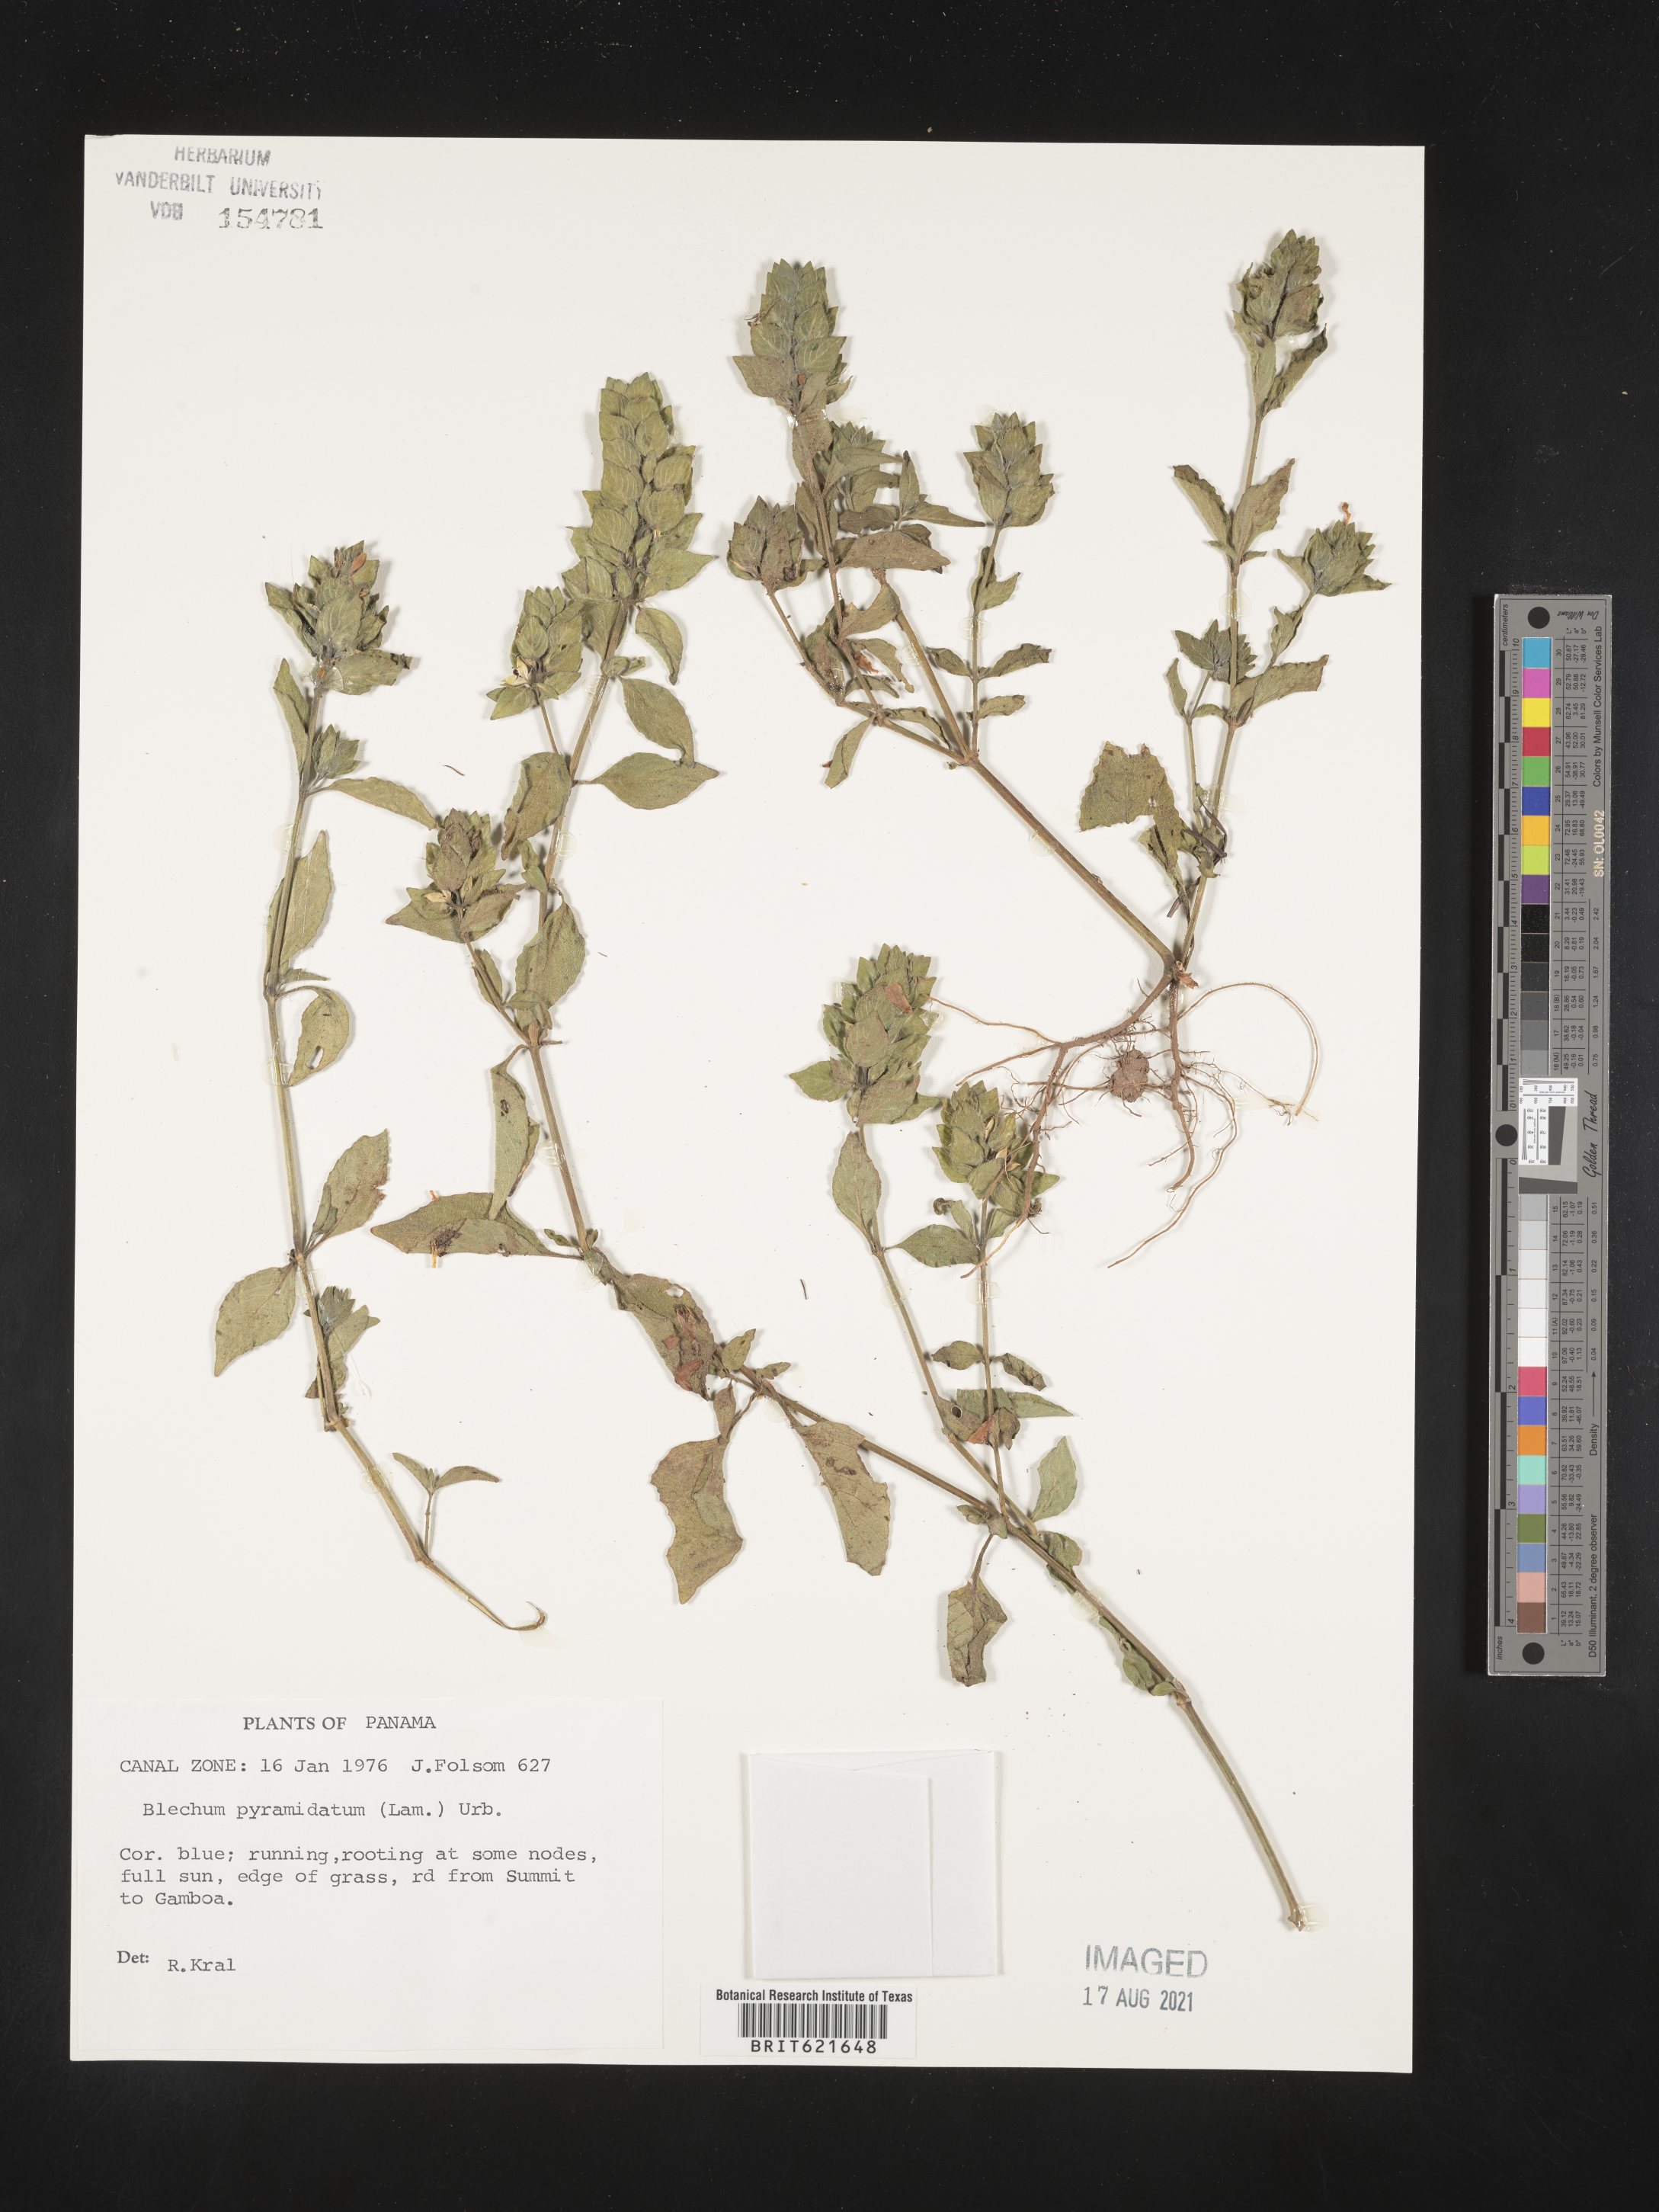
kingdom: Plantae
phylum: Tracheophyta
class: Magnoliopsida
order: Lamiales
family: Acanthaceae
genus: Ruellia
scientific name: Ruellia blechum
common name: Browne's blechum
